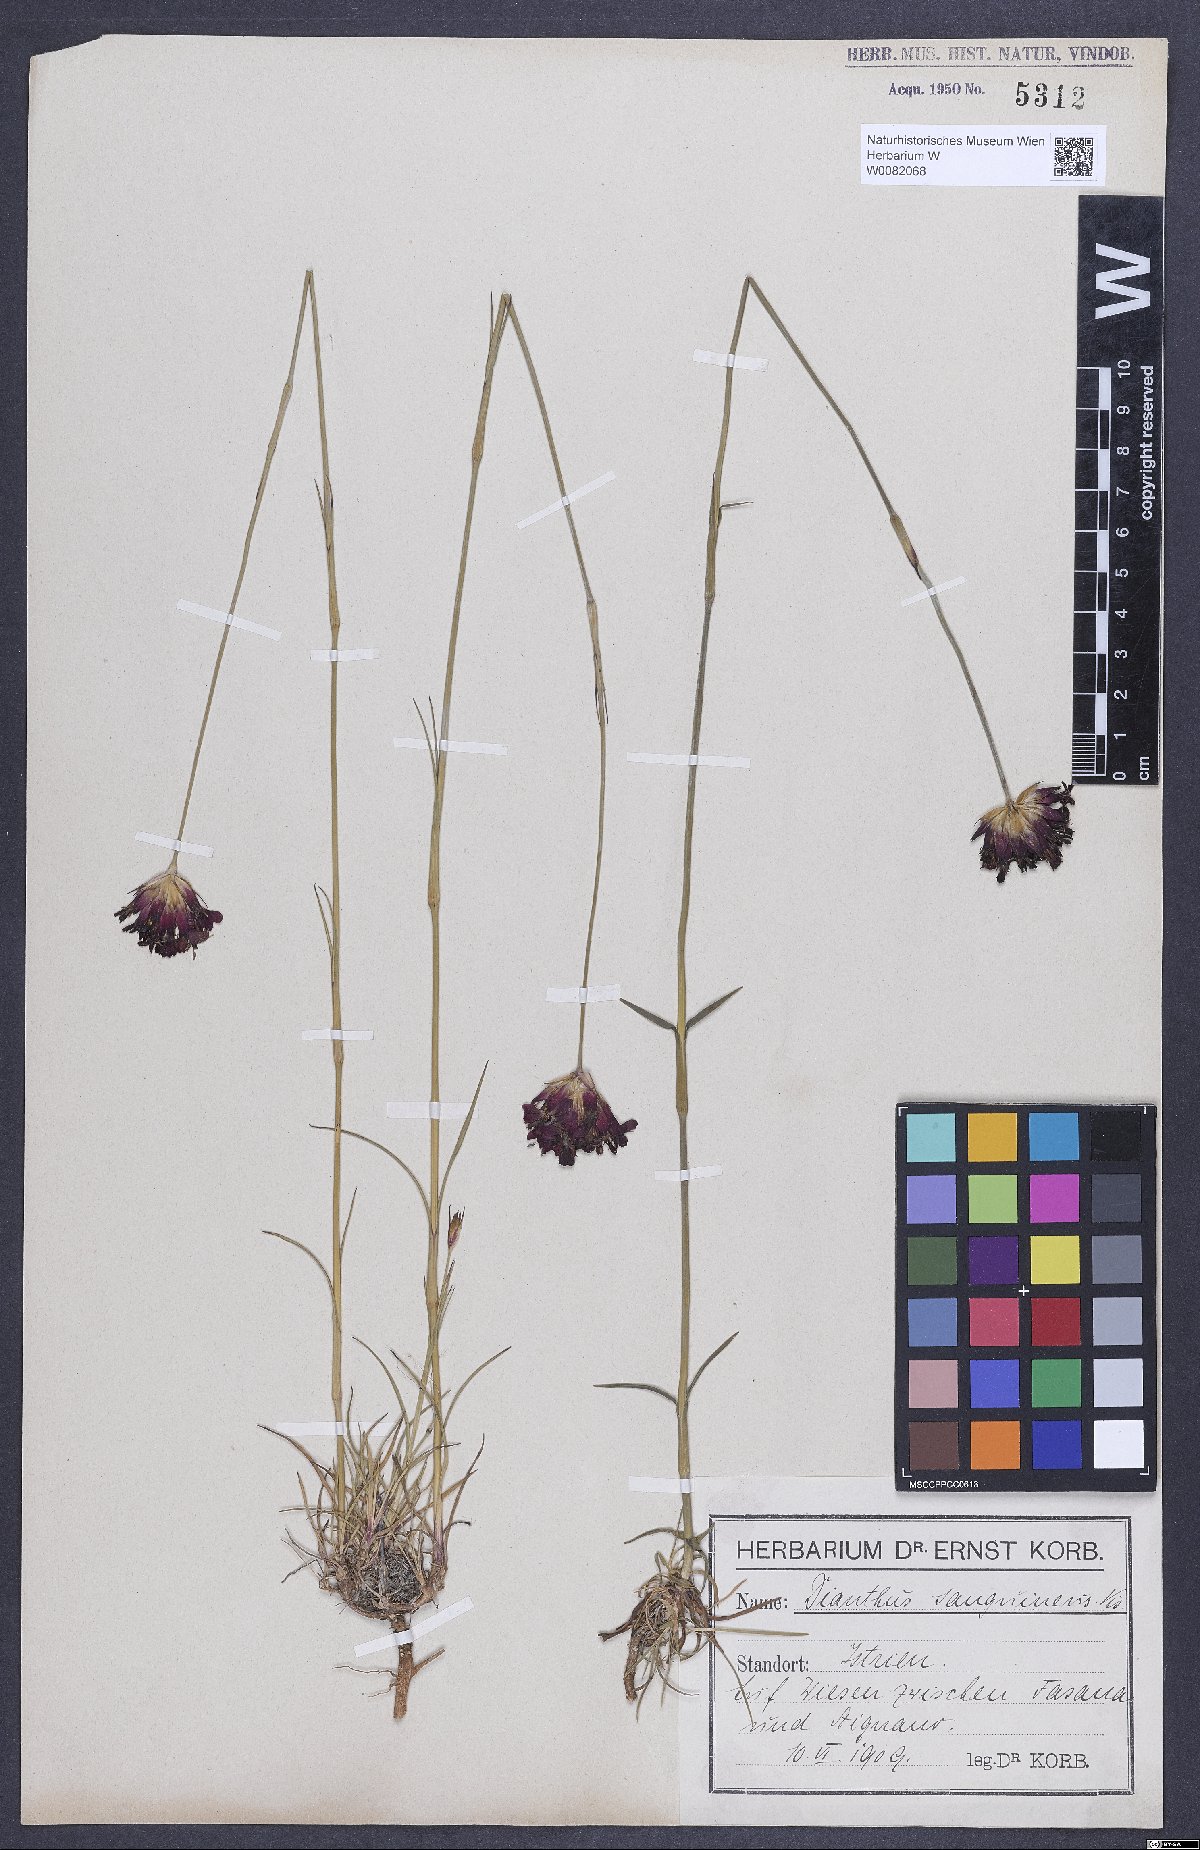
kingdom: Plantae
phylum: Tracheophyta
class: Magnoliopsida
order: Caryophyllales
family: Caryophyllaceae
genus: Dianthus
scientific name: Dianthus carthusianorum
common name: Carthusian pink
